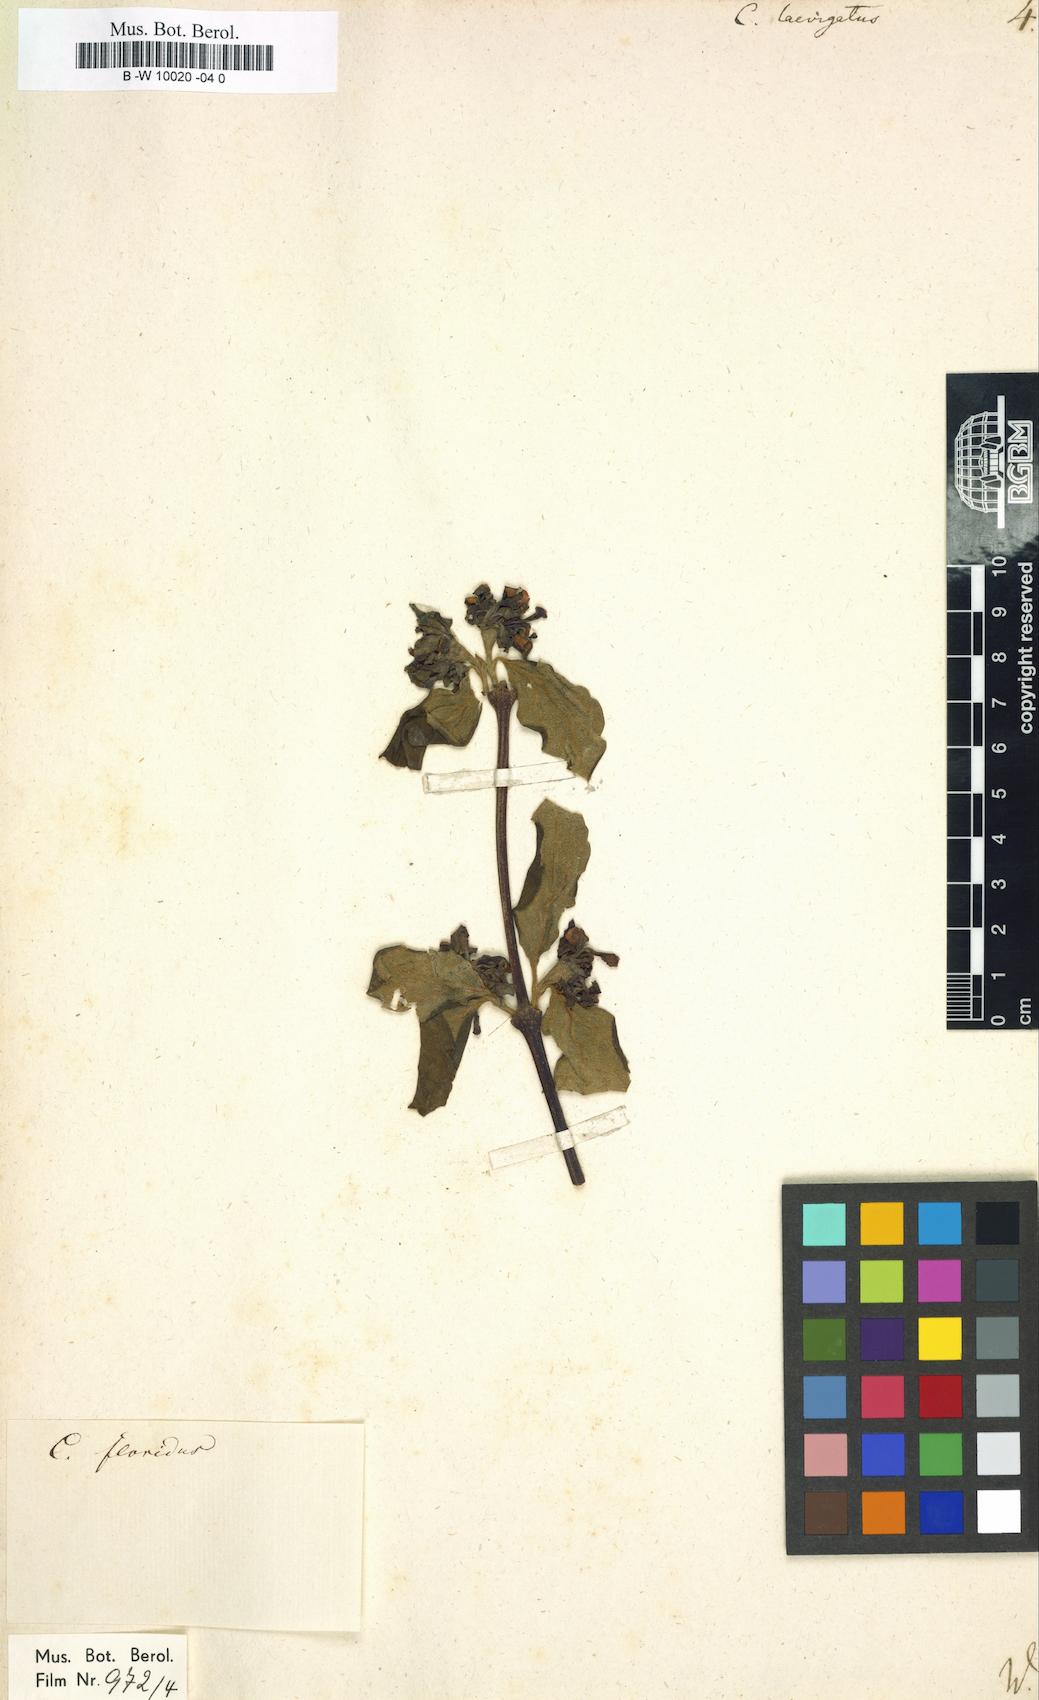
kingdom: Plantae
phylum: Tracheophyta
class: Magnoliopsida
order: Laurales
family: Calycanthaceae
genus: Calycanthus
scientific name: Calycanthus floridus
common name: Carolina-allspice
